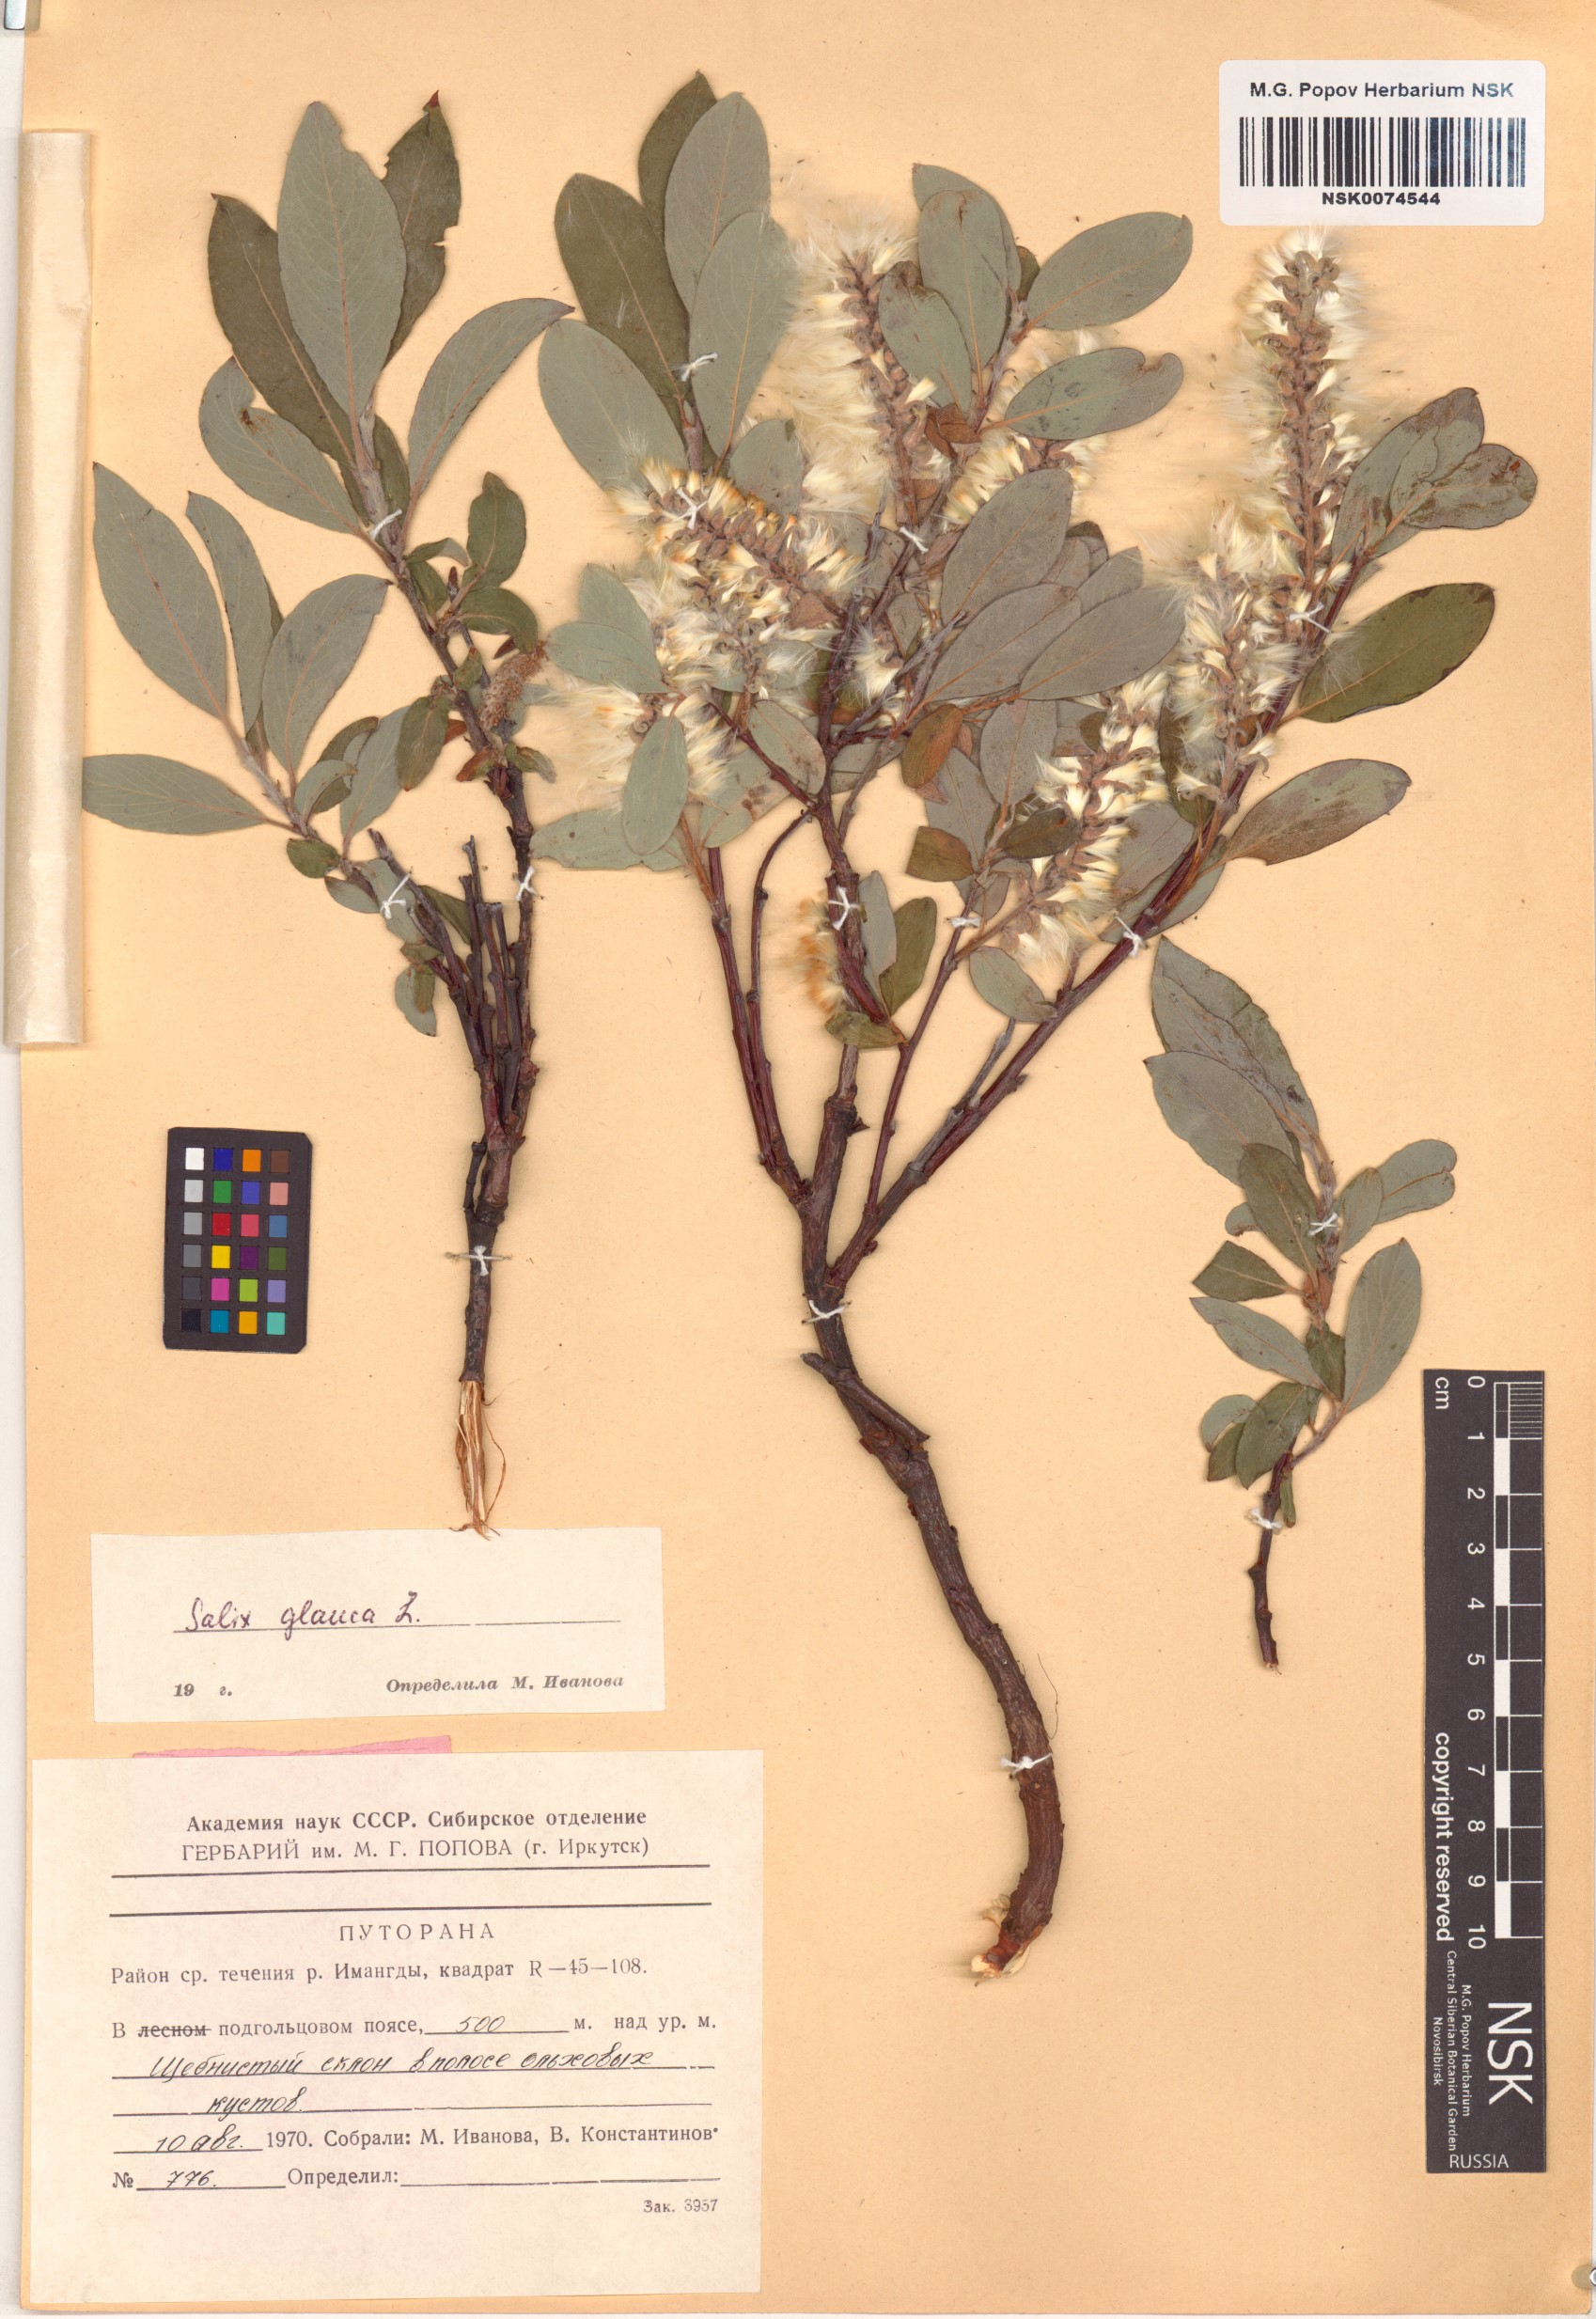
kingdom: Plantae
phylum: Tracheophyta
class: Magnoliopsida
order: Malpighiales
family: Salicaceae
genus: Salix
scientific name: Salix glauca
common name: Glaucous willow
